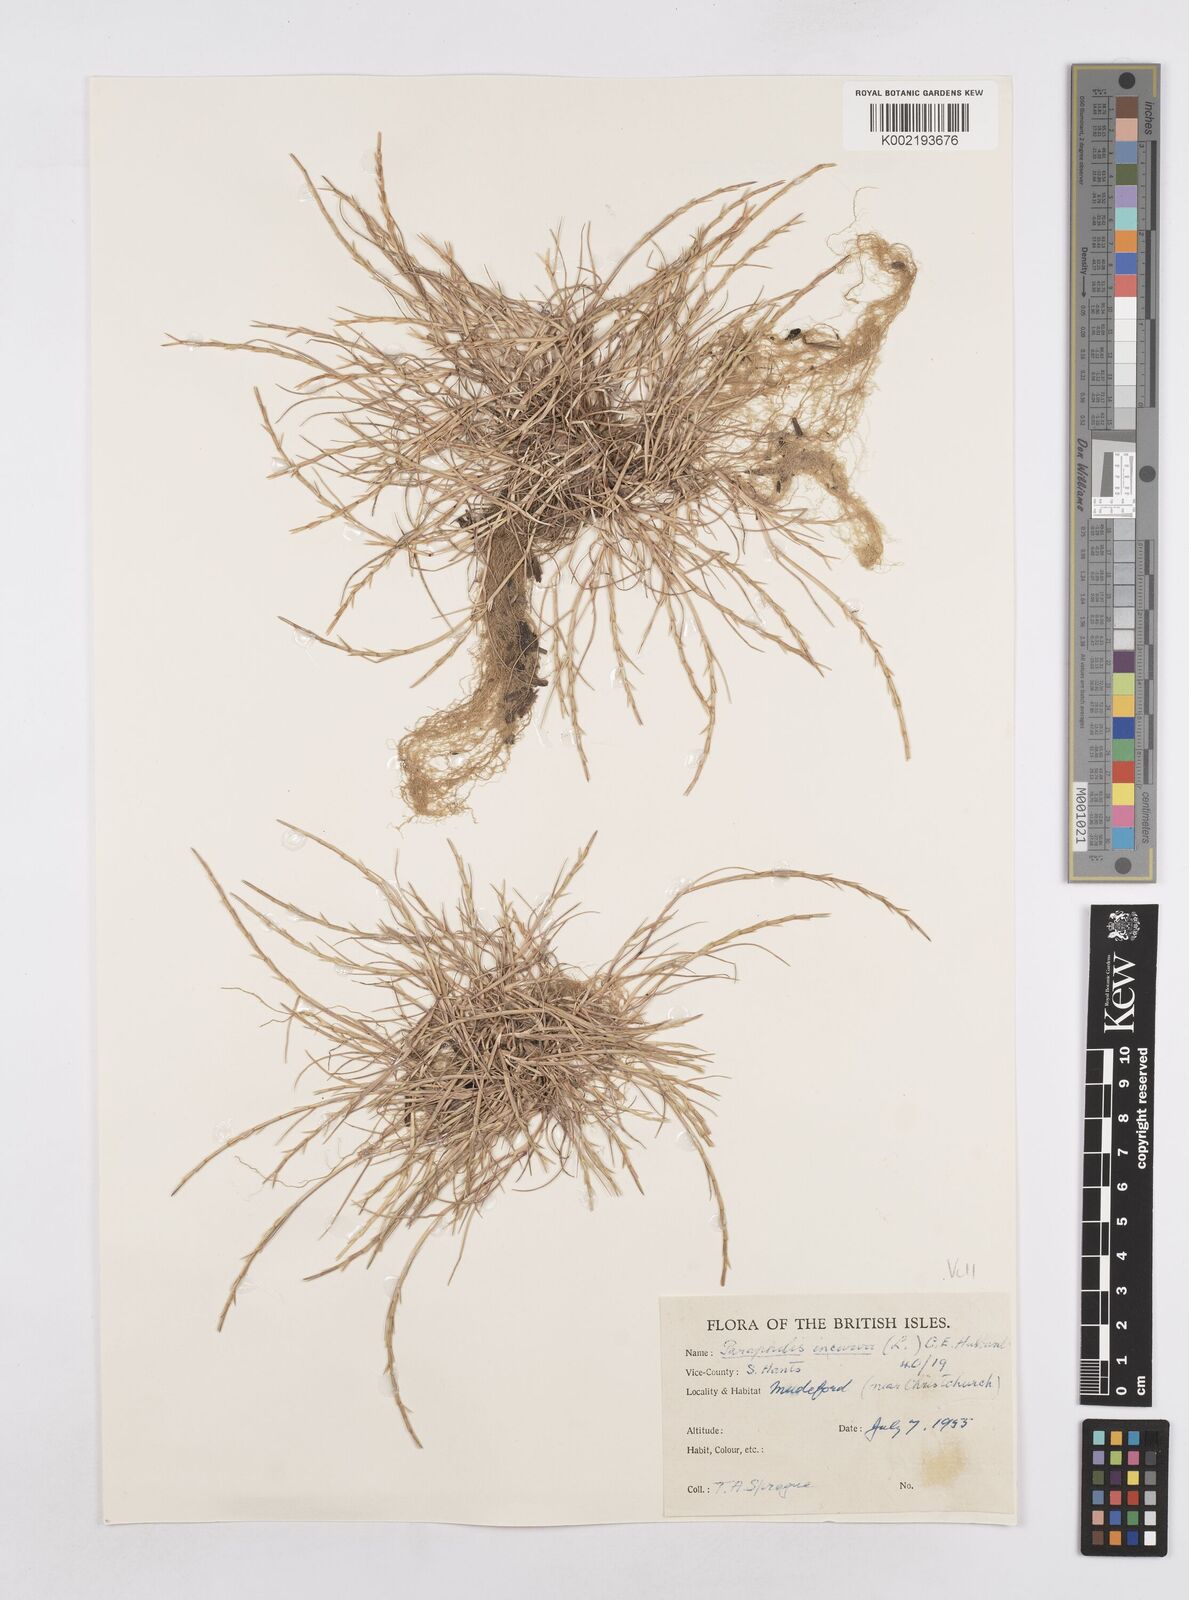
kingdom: Plantae
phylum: Tracheophyta
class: Liliopsida
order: Poales
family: Poaceae
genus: Parapholis
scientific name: Parapholis strigosa
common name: Hard-grass
